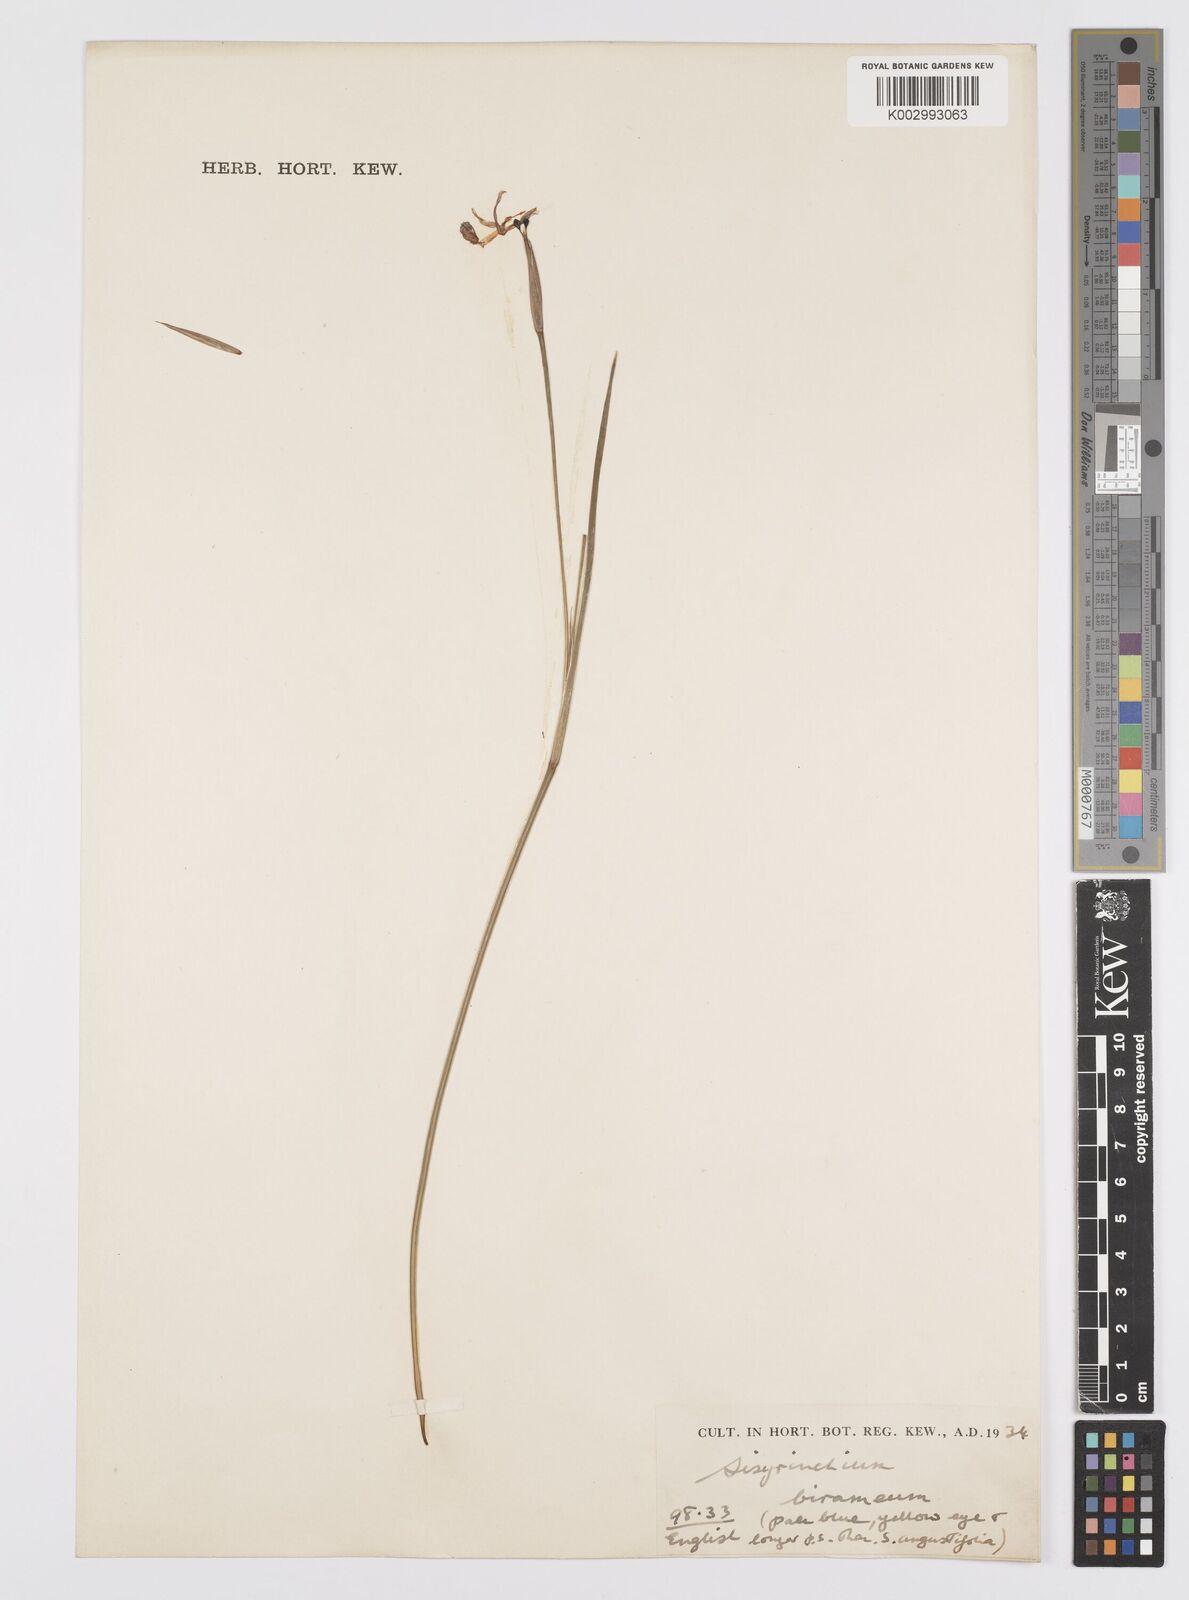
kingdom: Plantae
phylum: Tracheophyta
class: Liliopsida
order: Asparagales
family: Iridaceae
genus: Sisyrinchium
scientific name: Sisyrinchium idahoense
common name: Idaho blue-eyed-grass
